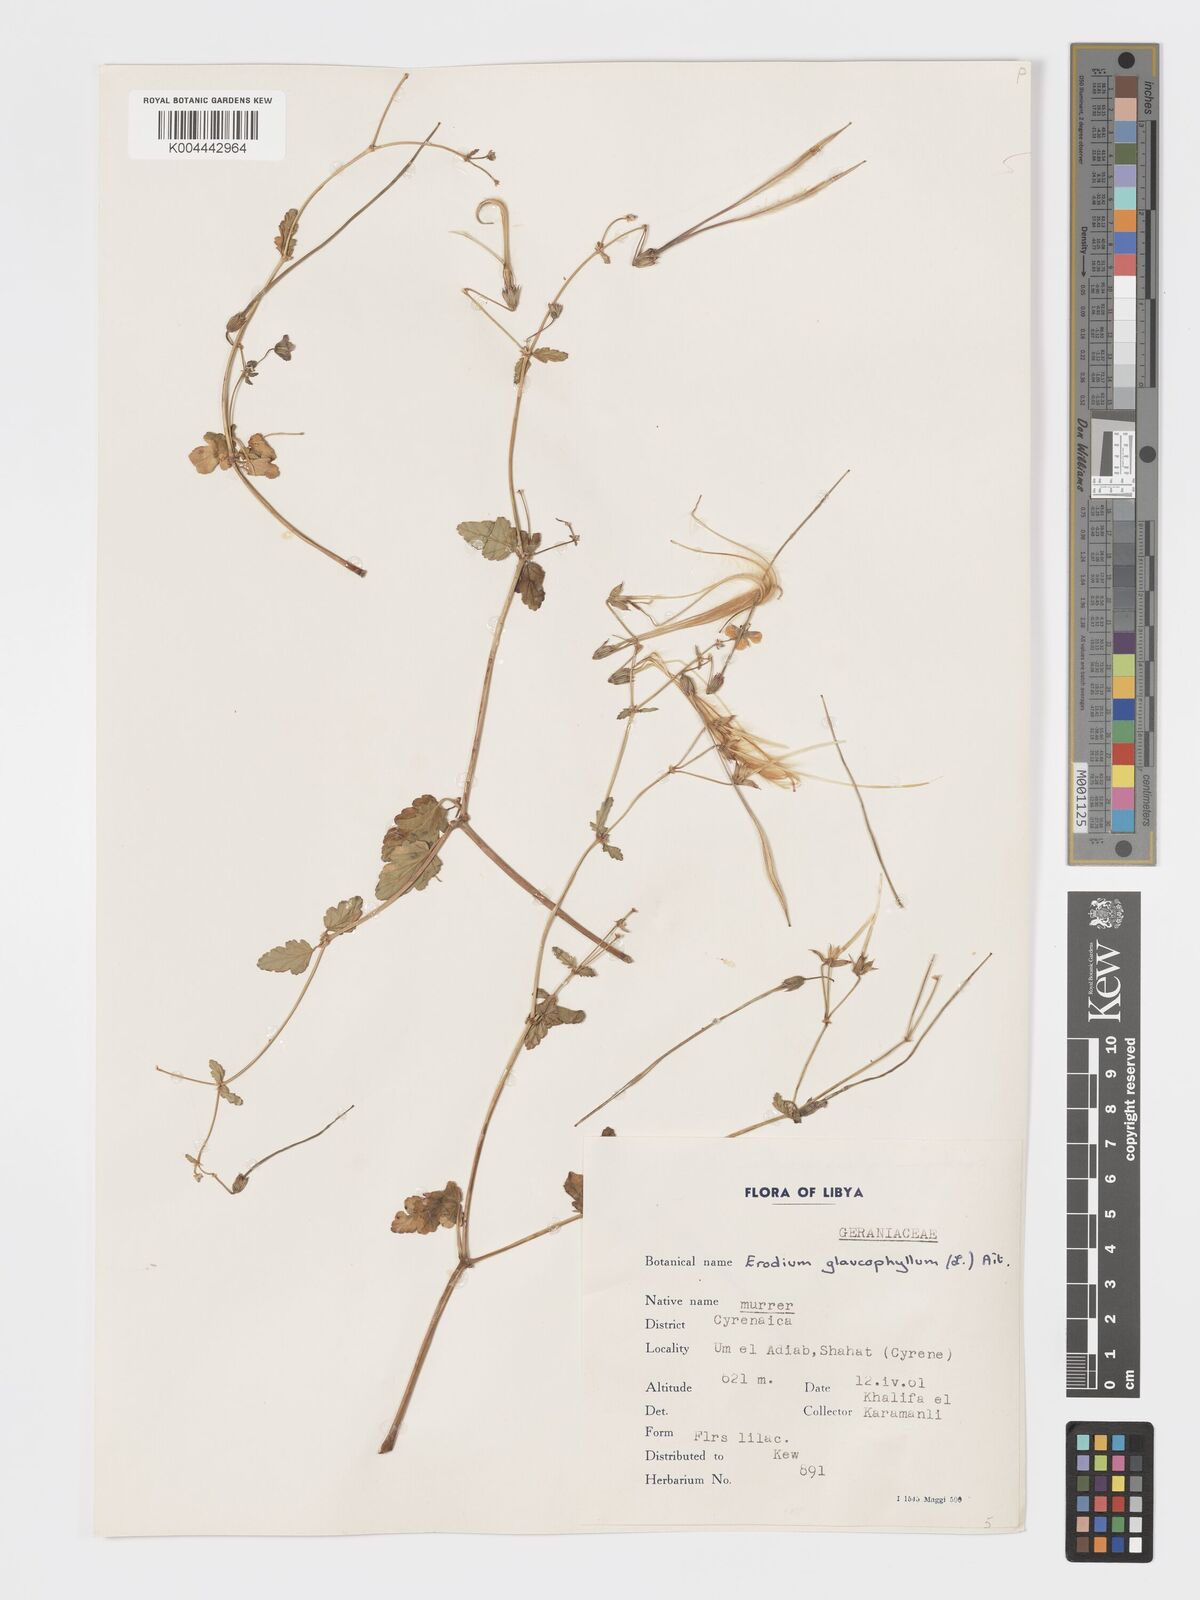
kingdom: Plantae
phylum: Tracheophyta
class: Magnoliopsida
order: Geraniales
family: Geraniaceae
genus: Erodium
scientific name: Erodium glaucophyllum
